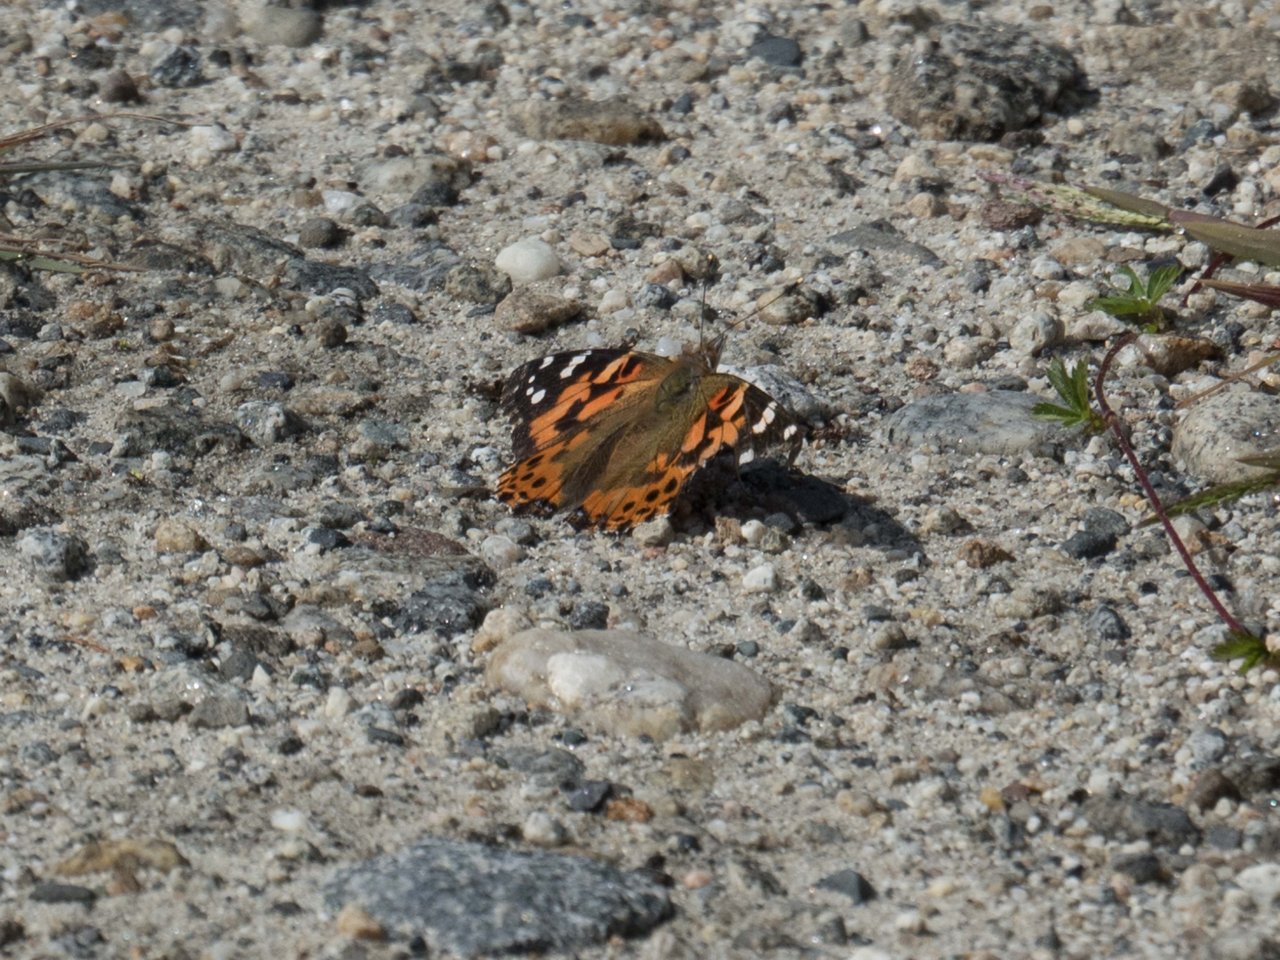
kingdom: Animalia
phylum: Arthropoda
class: Insecta
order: Lepidoptera
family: Nymphalidae
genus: Vanessa
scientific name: Vanessa cardui
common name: Painted Lady
